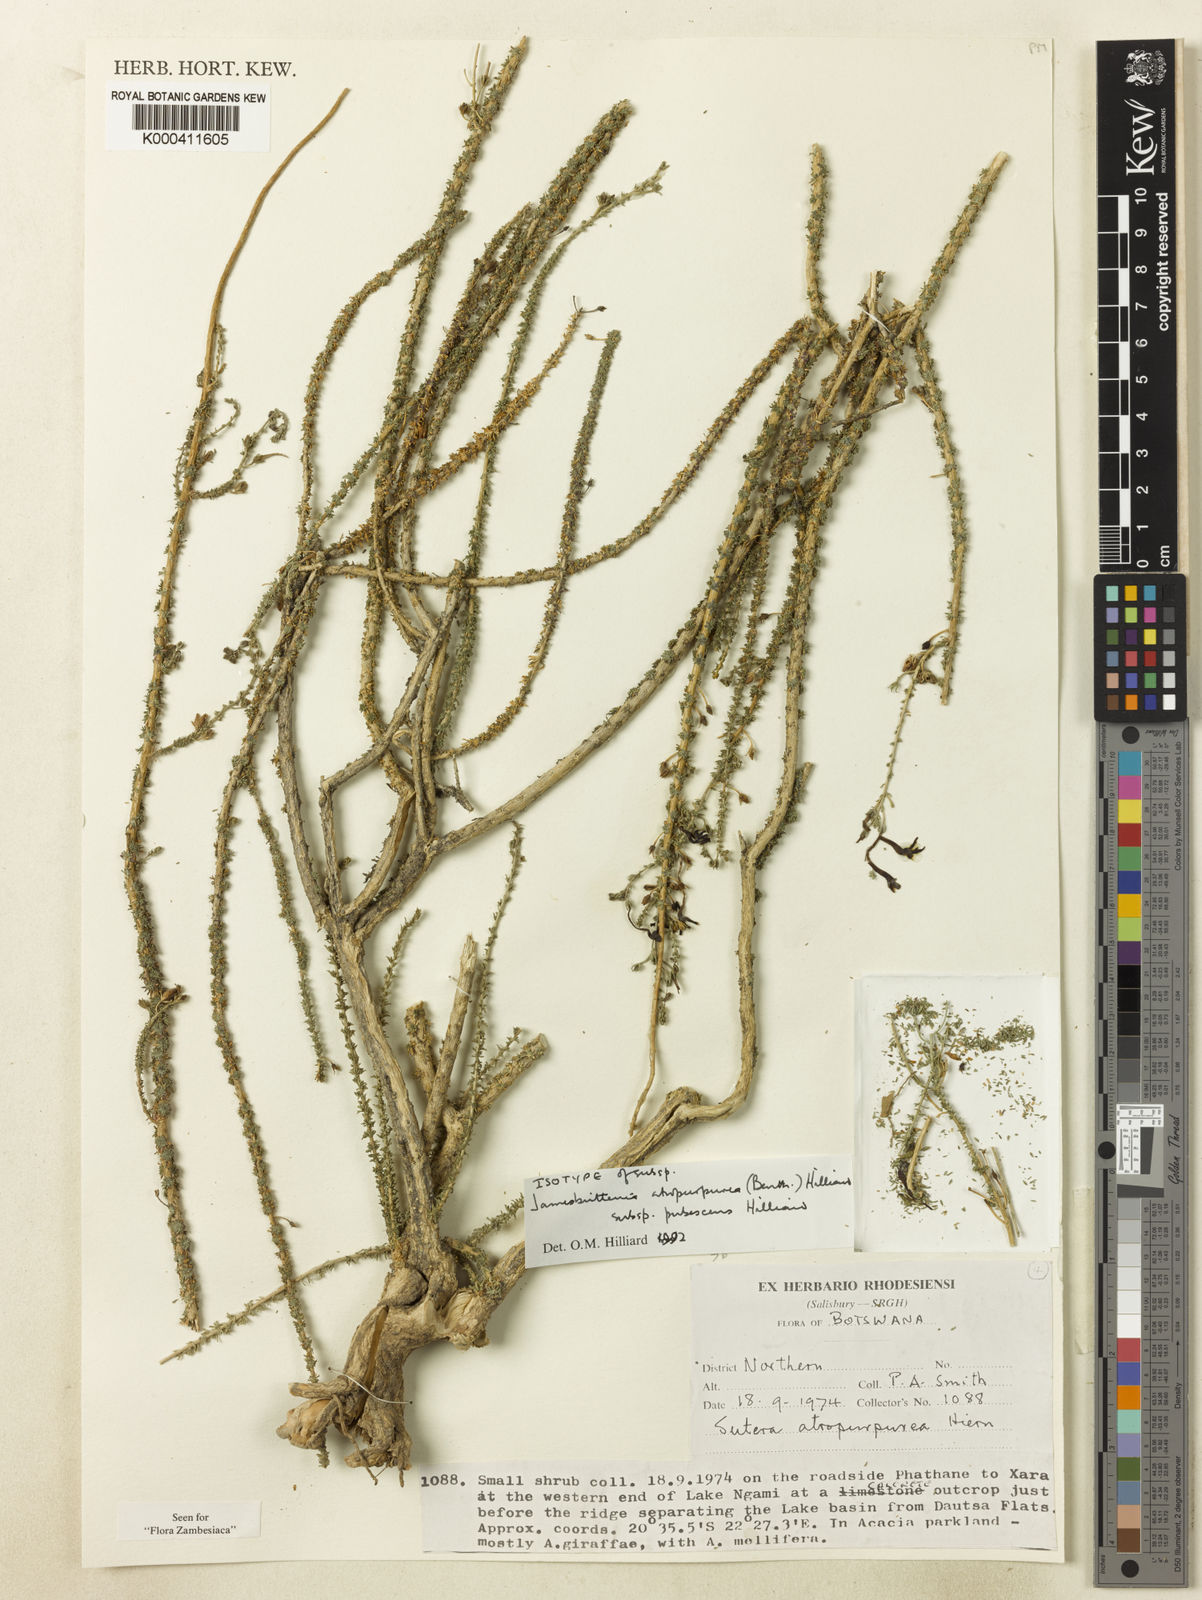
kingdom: Plantae
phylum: Tracheophyta
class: Magnoliopsida
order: Lamiales
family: Scrophulariaceae
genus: Jamesbrittenia
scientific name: Jamesbrittenia atropurpurea
